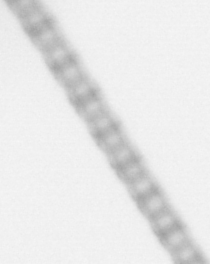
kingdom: Chromista
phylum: Ochrophyta
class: Bacillariophyceae
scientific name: Bacillariophyceae
